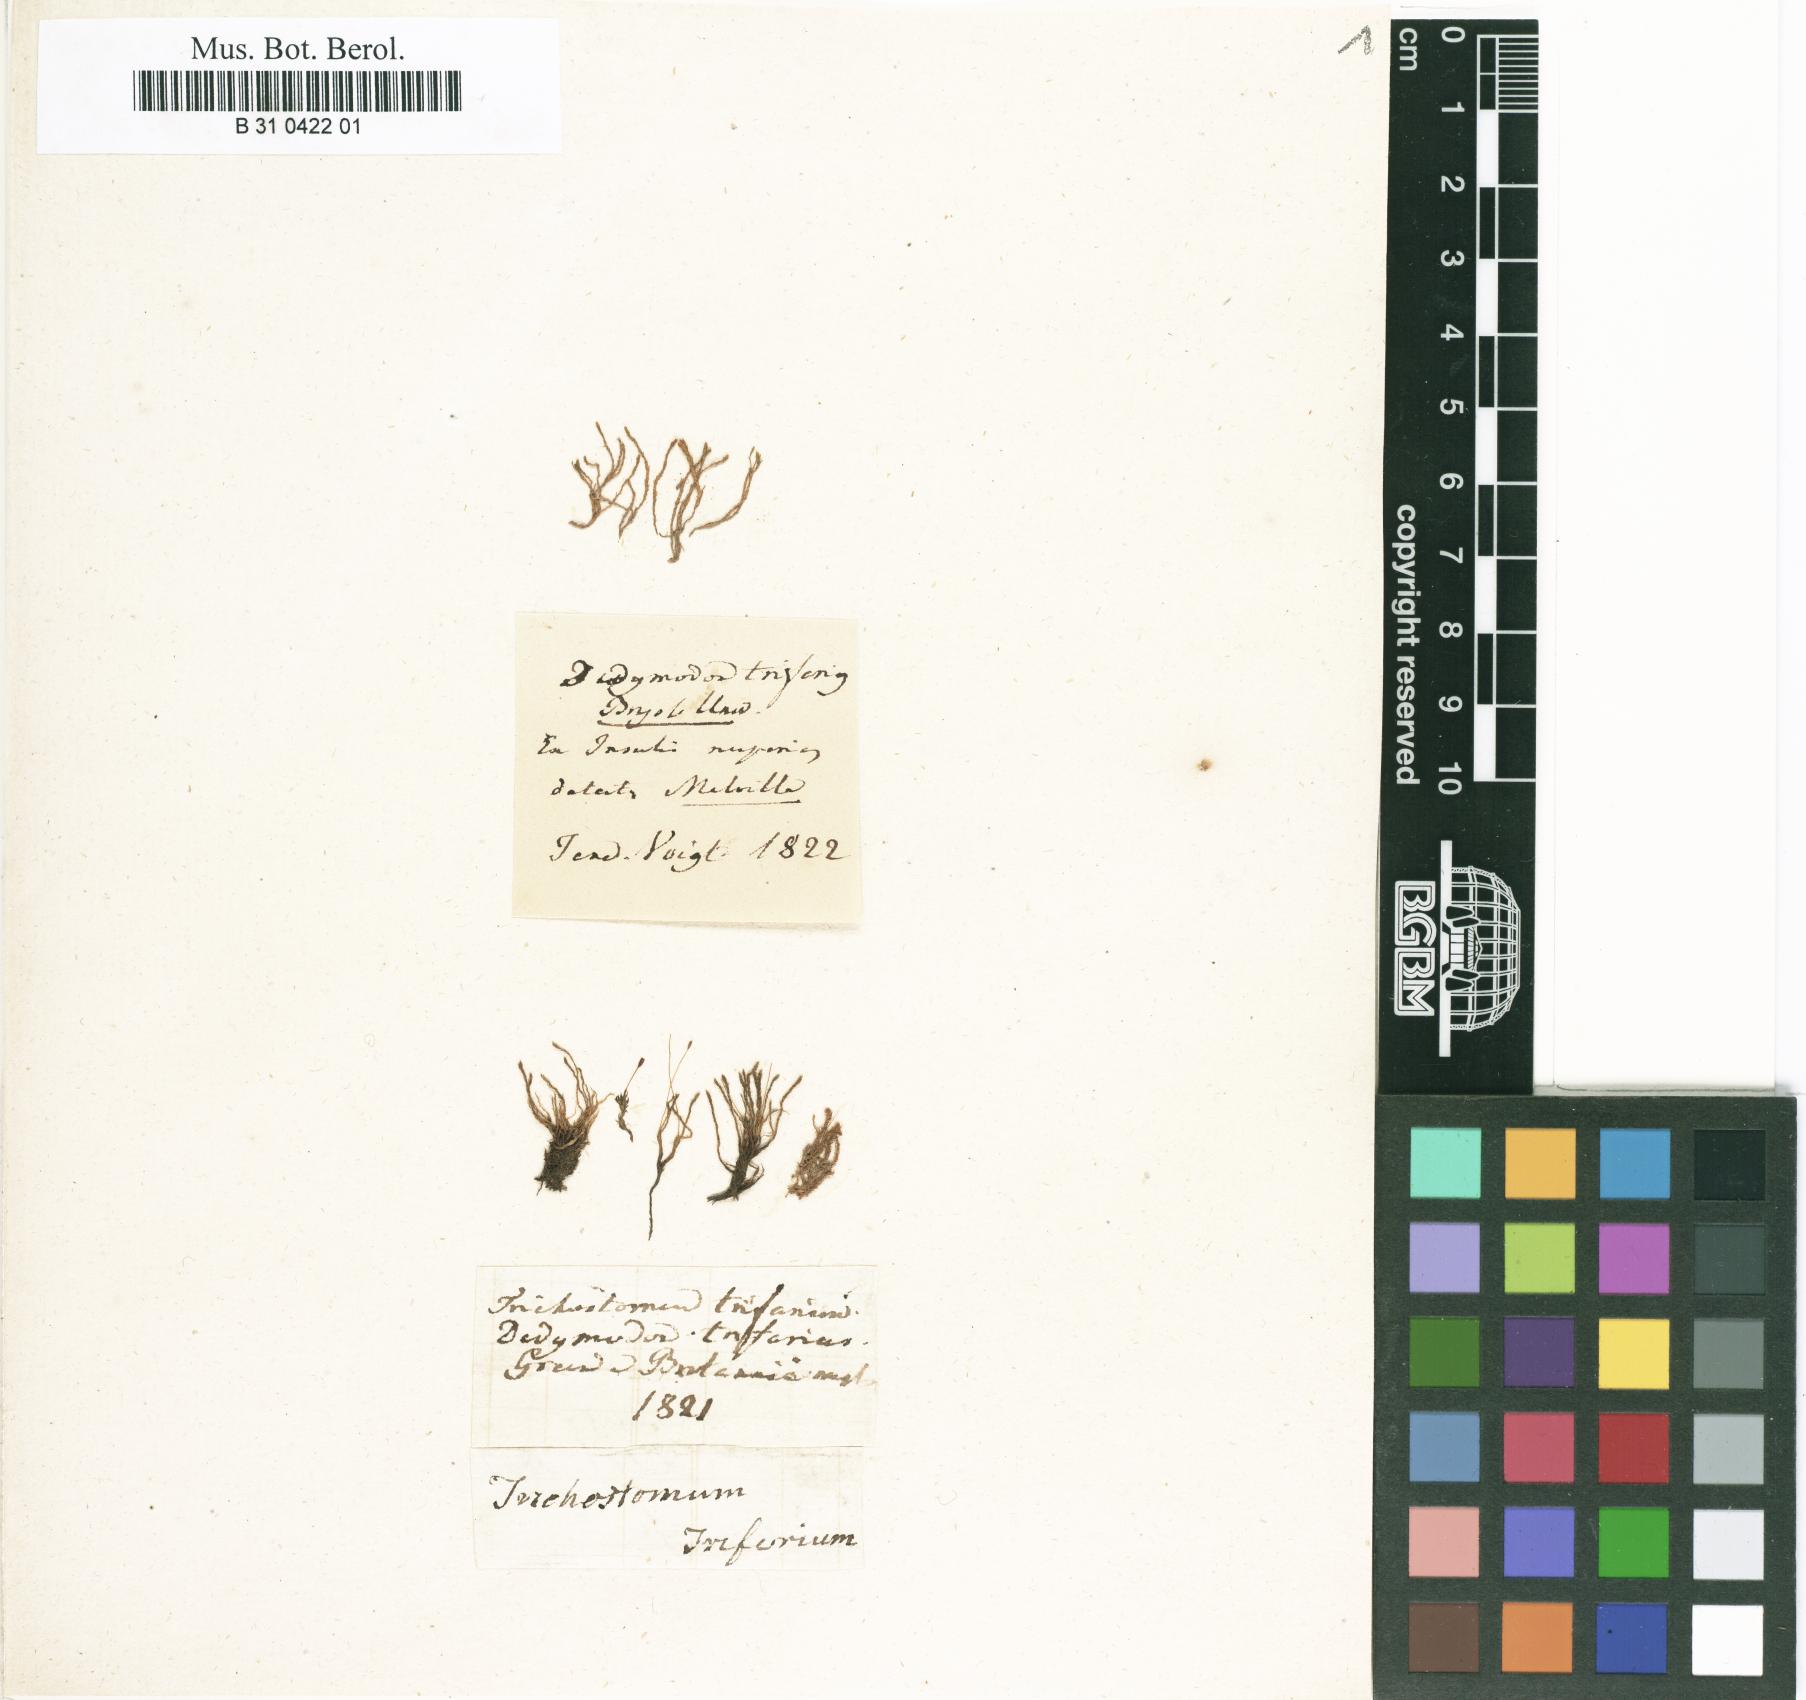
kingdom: Plantae
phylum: Bryophyta
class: Bryopsida
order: Grimmiales
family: Saelaniaceae
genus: Saelania
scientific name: Saelania glaucescens
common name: Blue dew-moss
